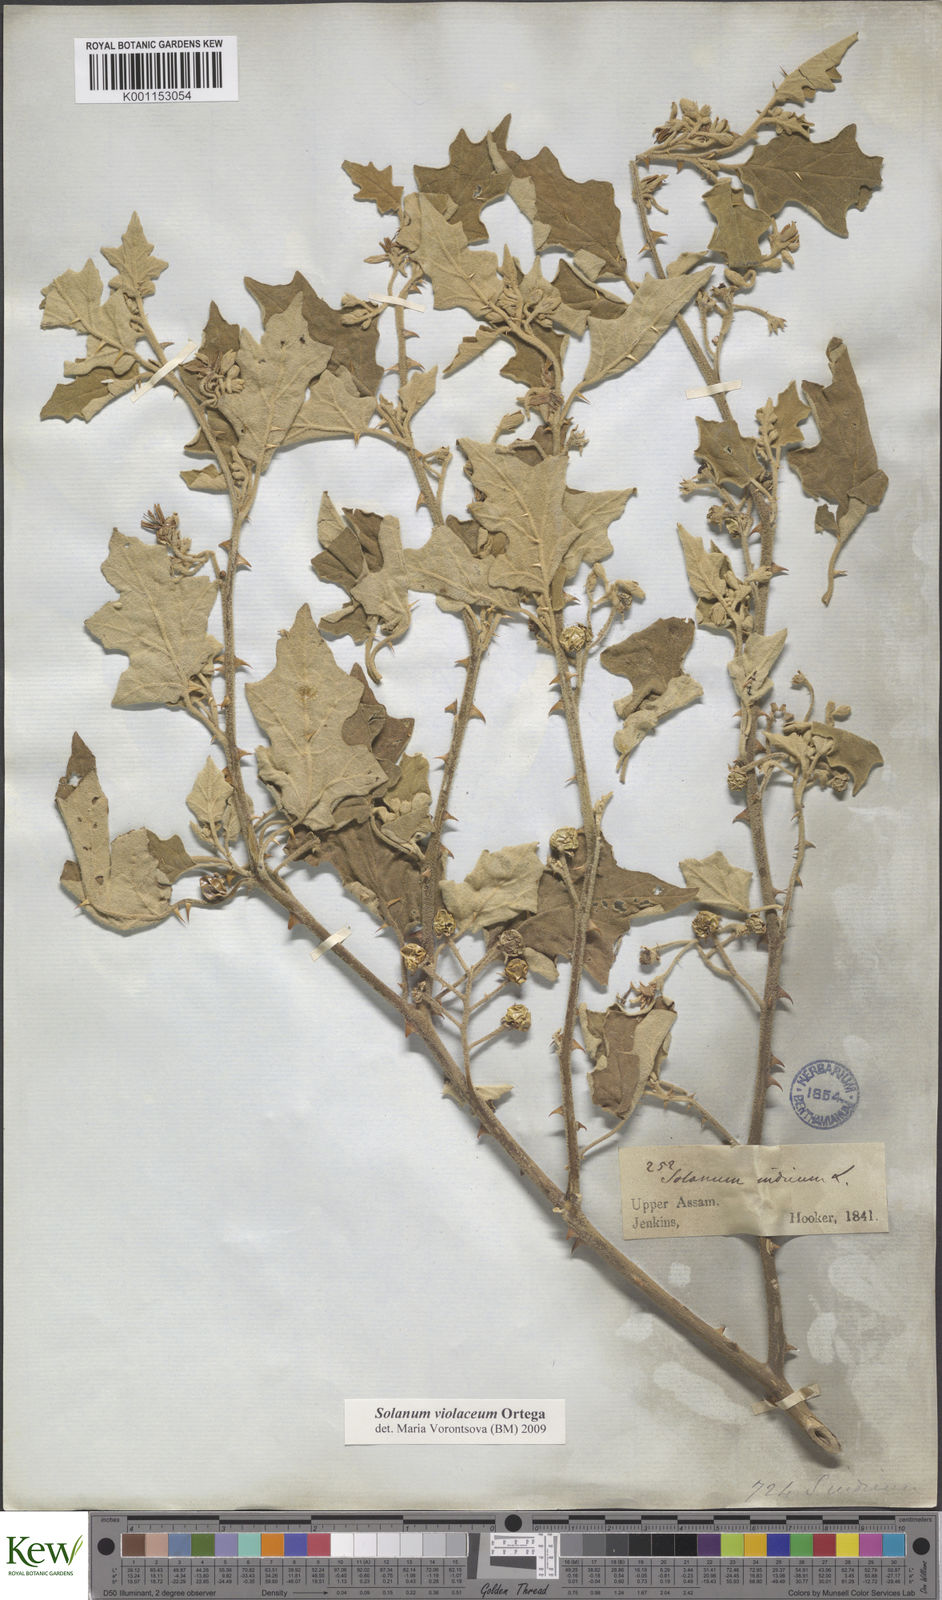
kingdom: Plantae
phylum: Tracheophyta
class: Magnoliopsida
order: Solanales
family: Solanaceae
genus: Solanum
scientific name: Solanum violaceum
